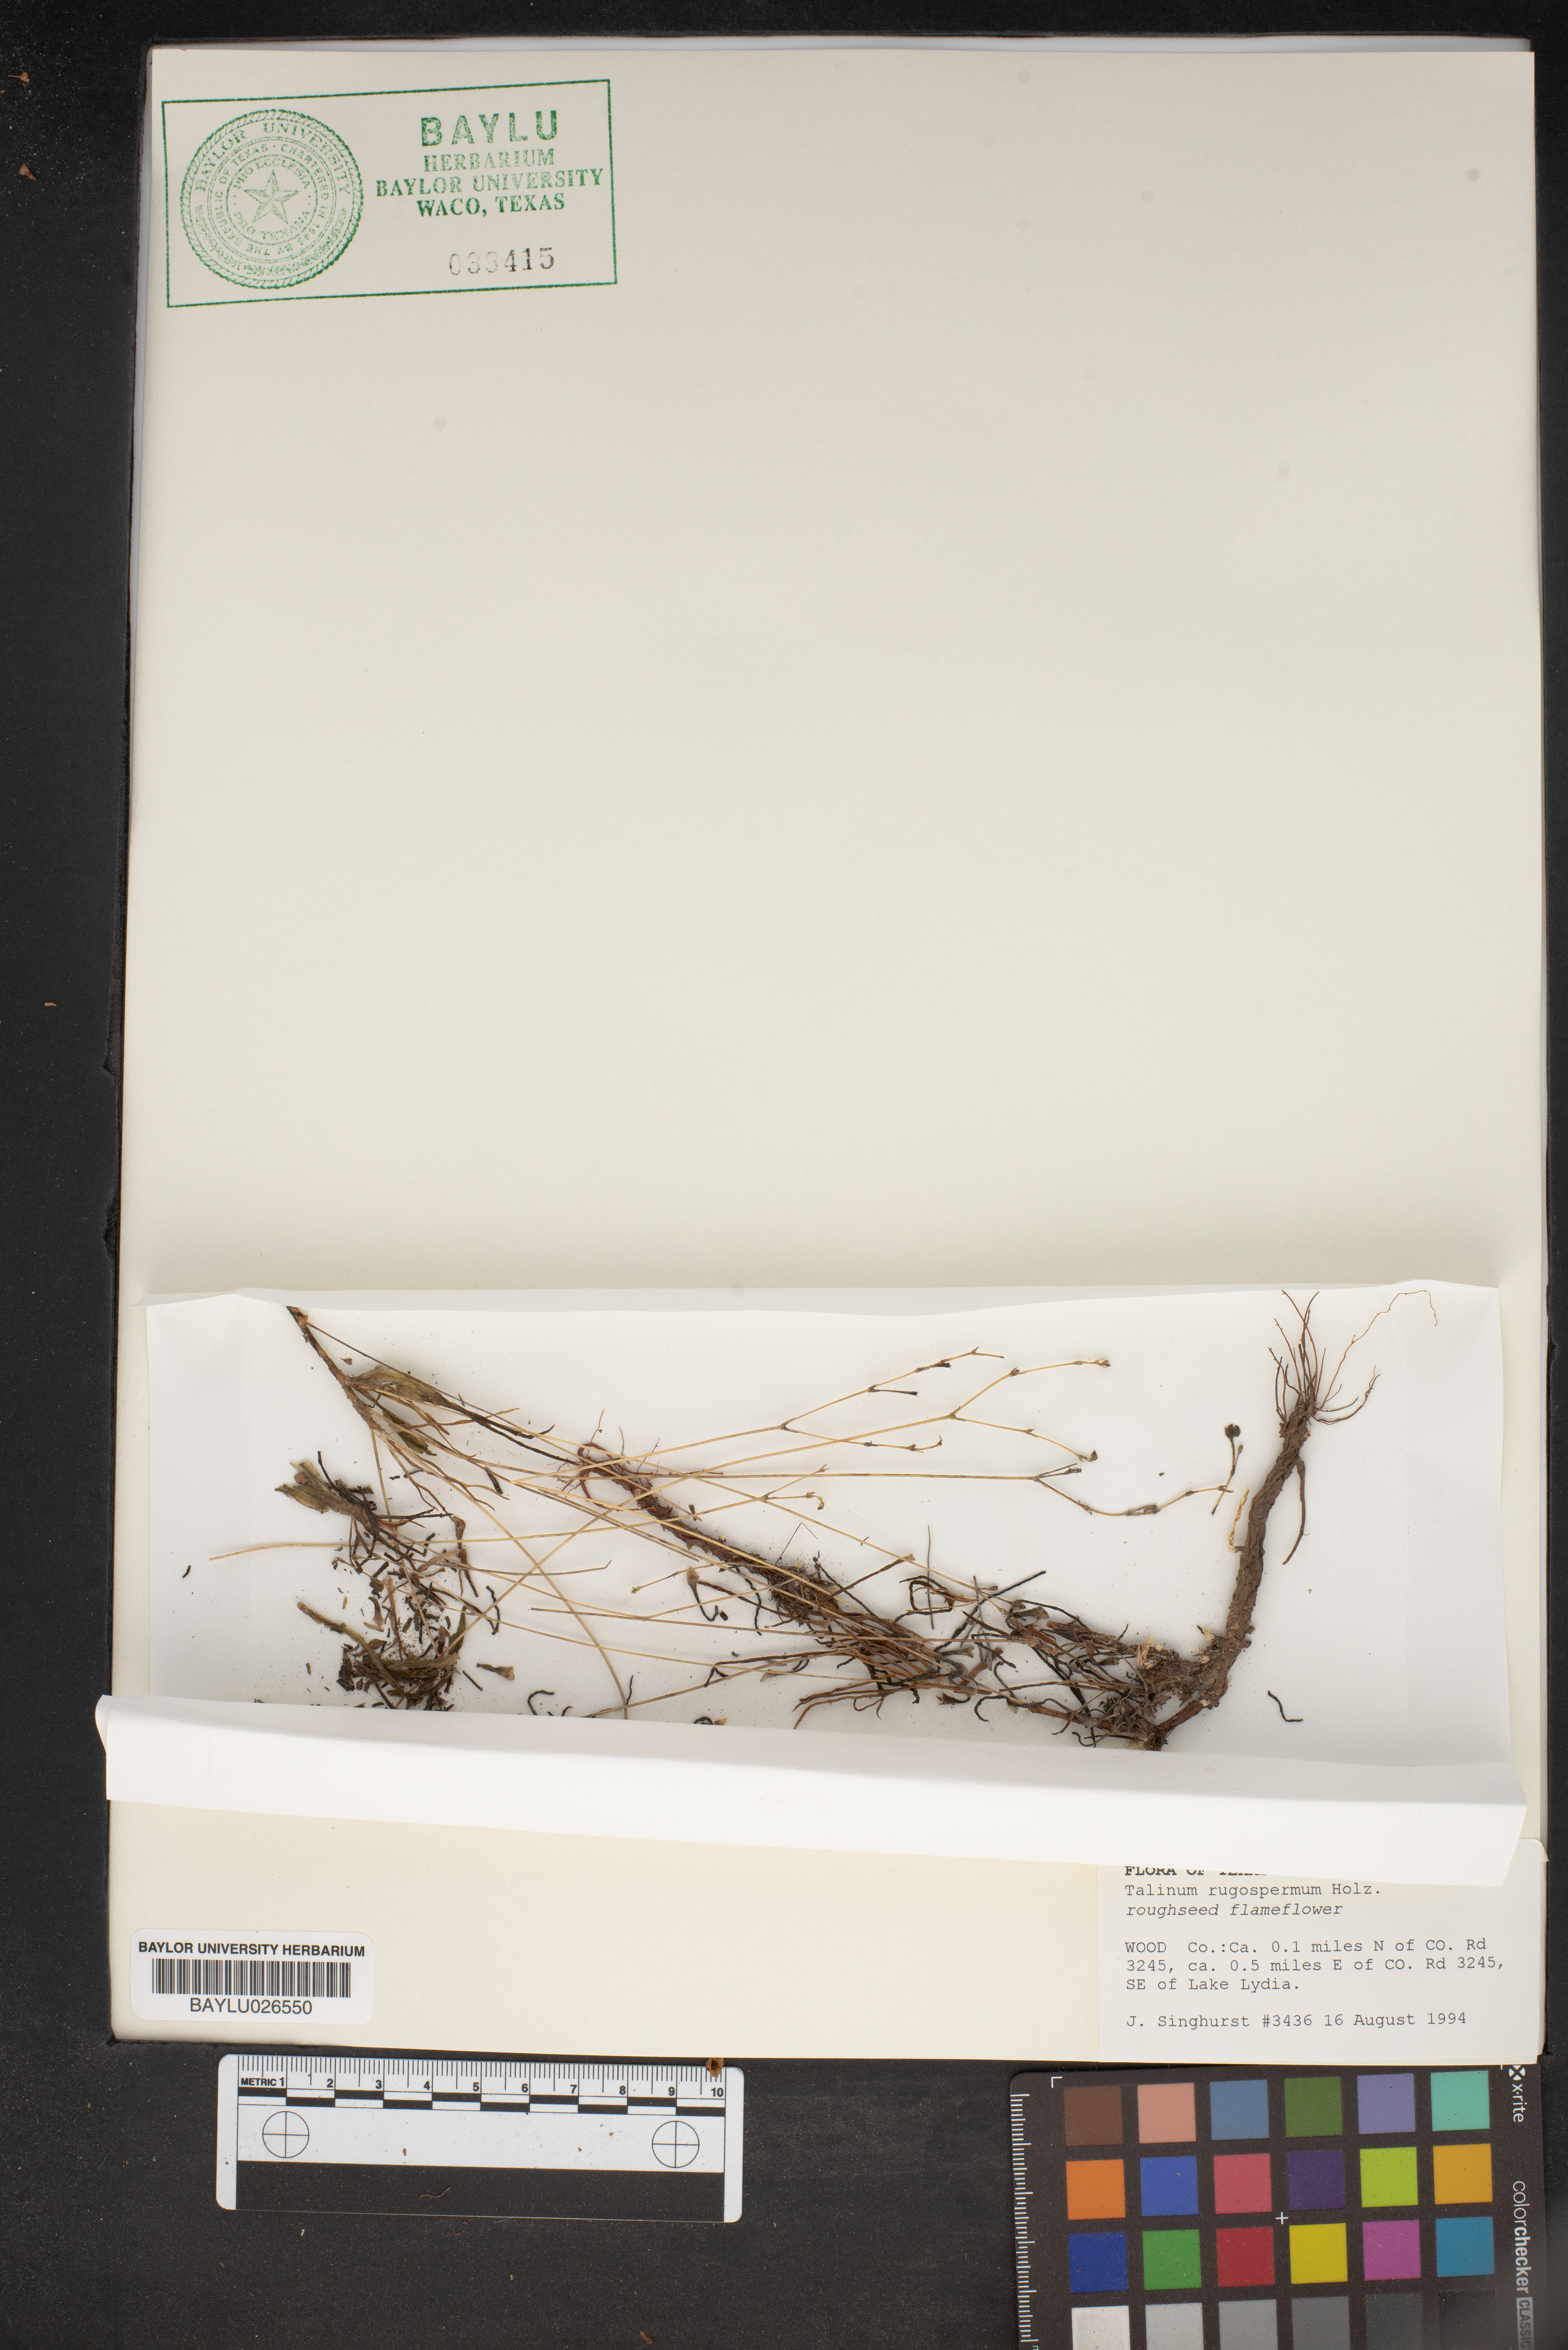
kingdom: Plantae
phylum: Tracheophyta
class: Magnoliopsida
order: Caryophyllales
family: Montiaceae
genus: Phemeranthus
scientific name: Phemeranthus rugospermus
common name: Prairie fameflower
